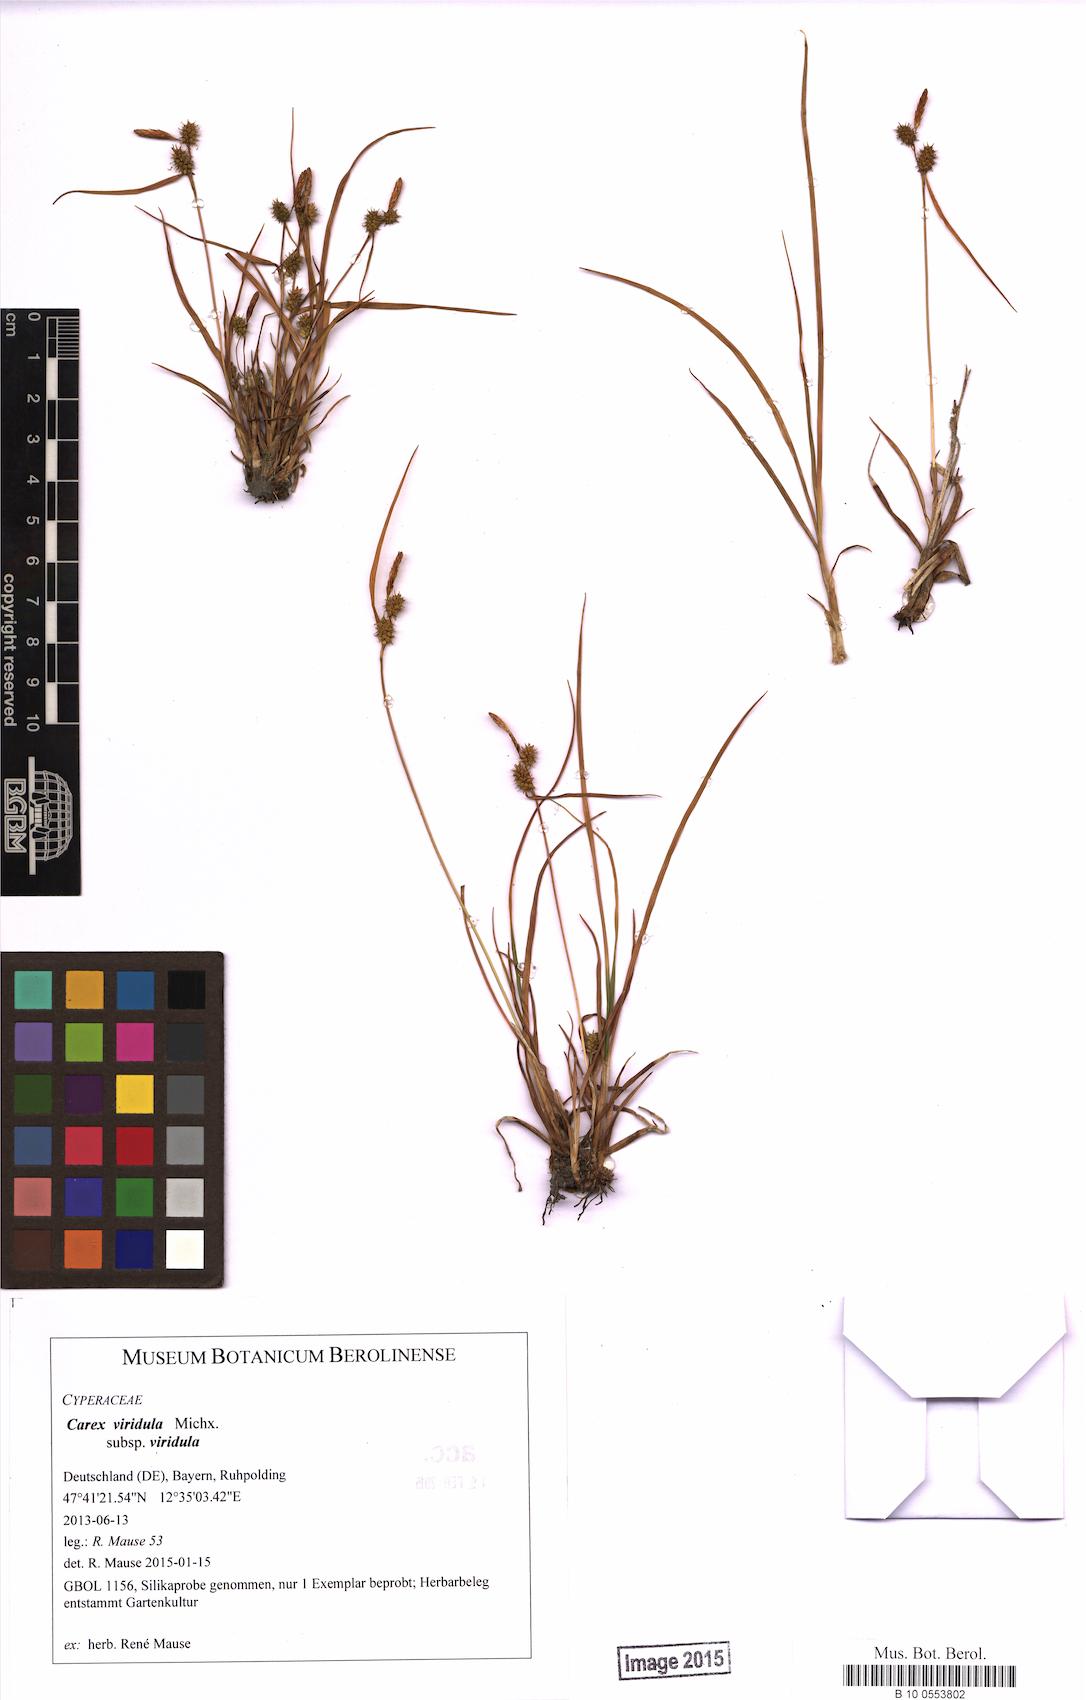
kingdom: Plantae
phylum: Tracheophyta
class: Liliopsida
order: Poales
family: Cyperaceae
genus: Carex
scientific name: Carex oederi
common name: Common & small-fruited yellow-sedge
